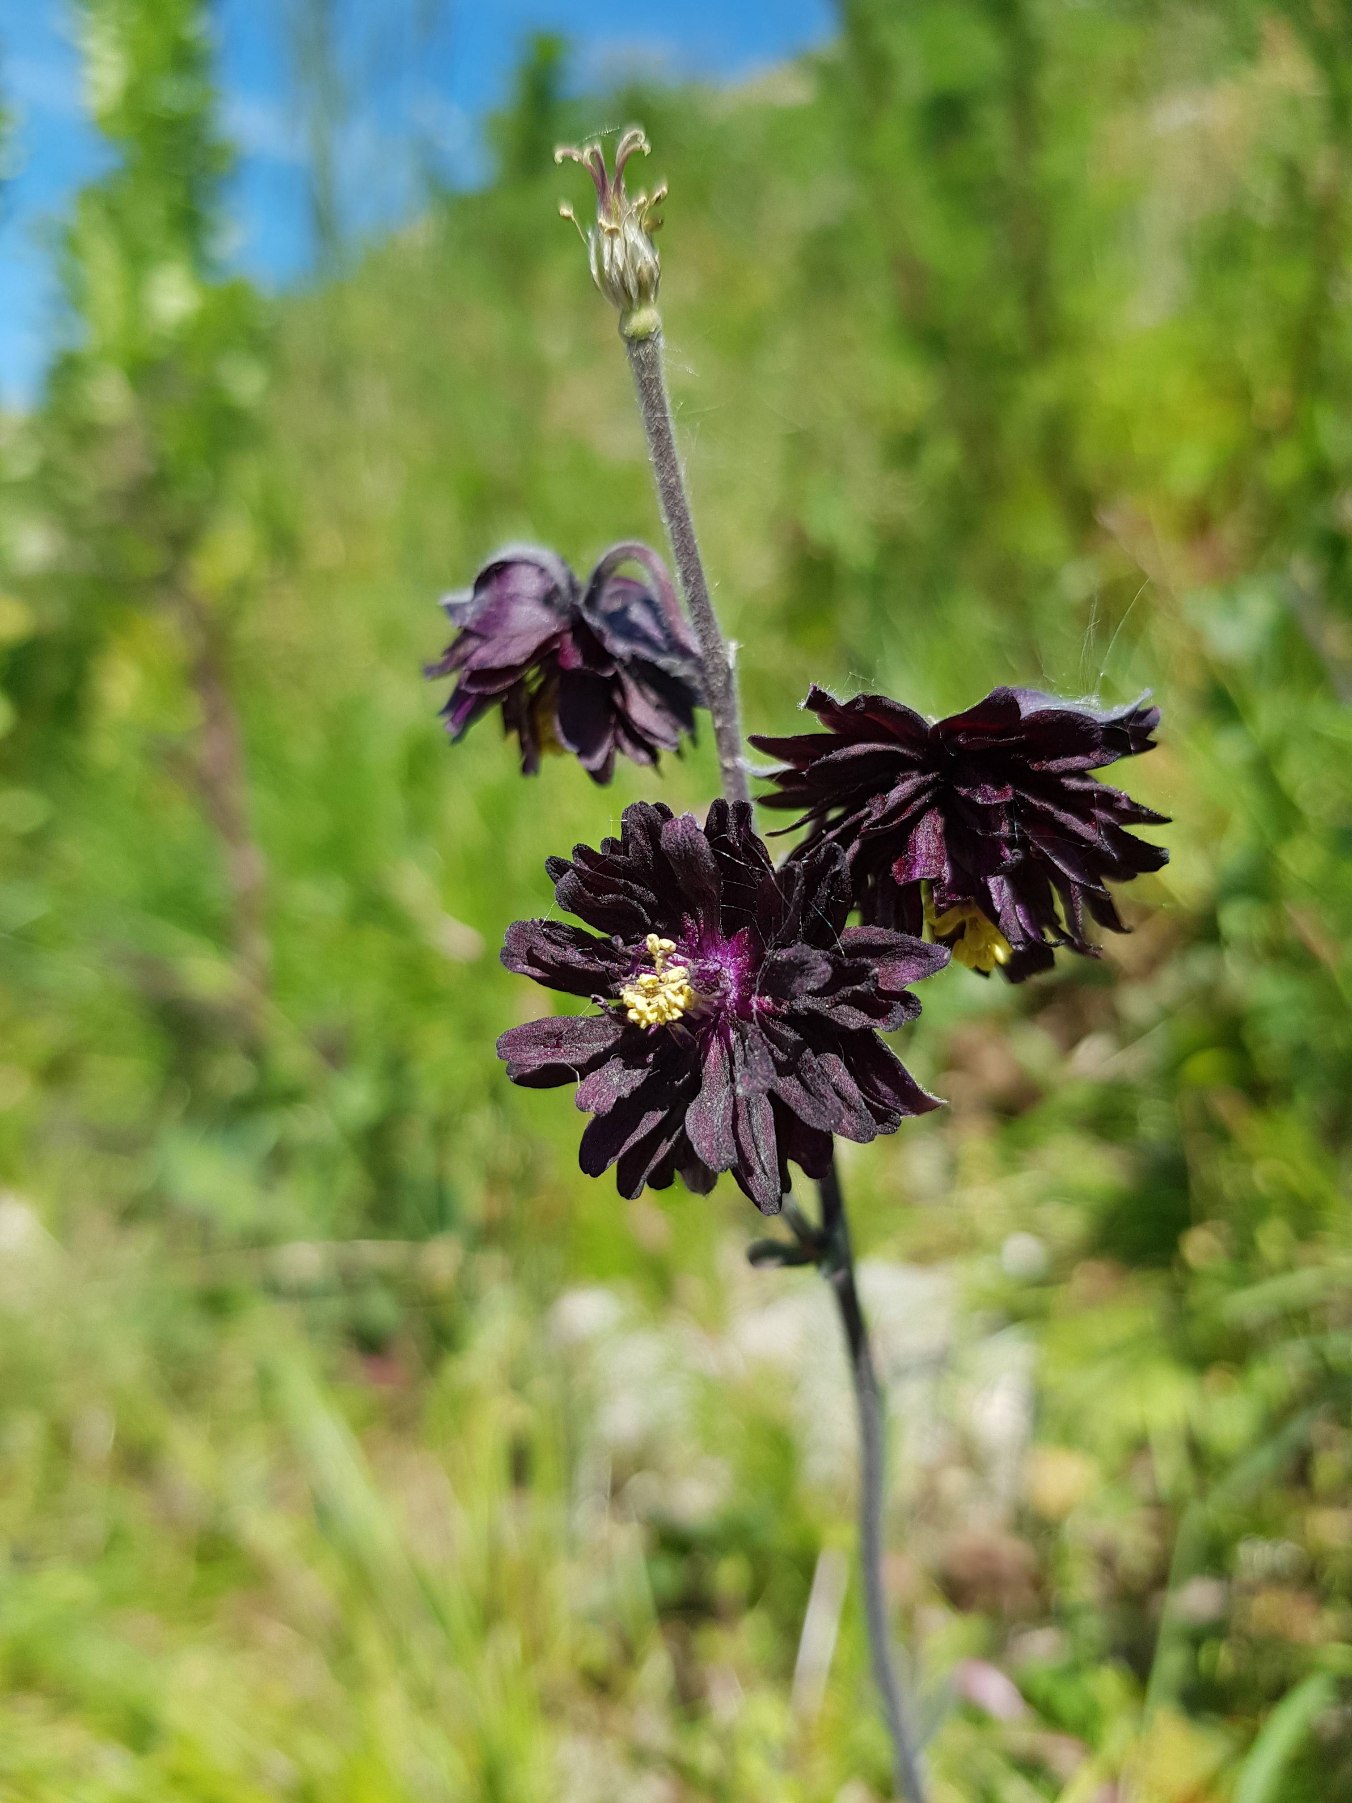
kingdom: Plantae
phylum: Tracheophyta
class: Magnoliopsida
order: Ranunculales
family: Ranunculaceae
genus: Aquilegia
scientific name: Aquilegia vulgaris
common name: Akeleje
